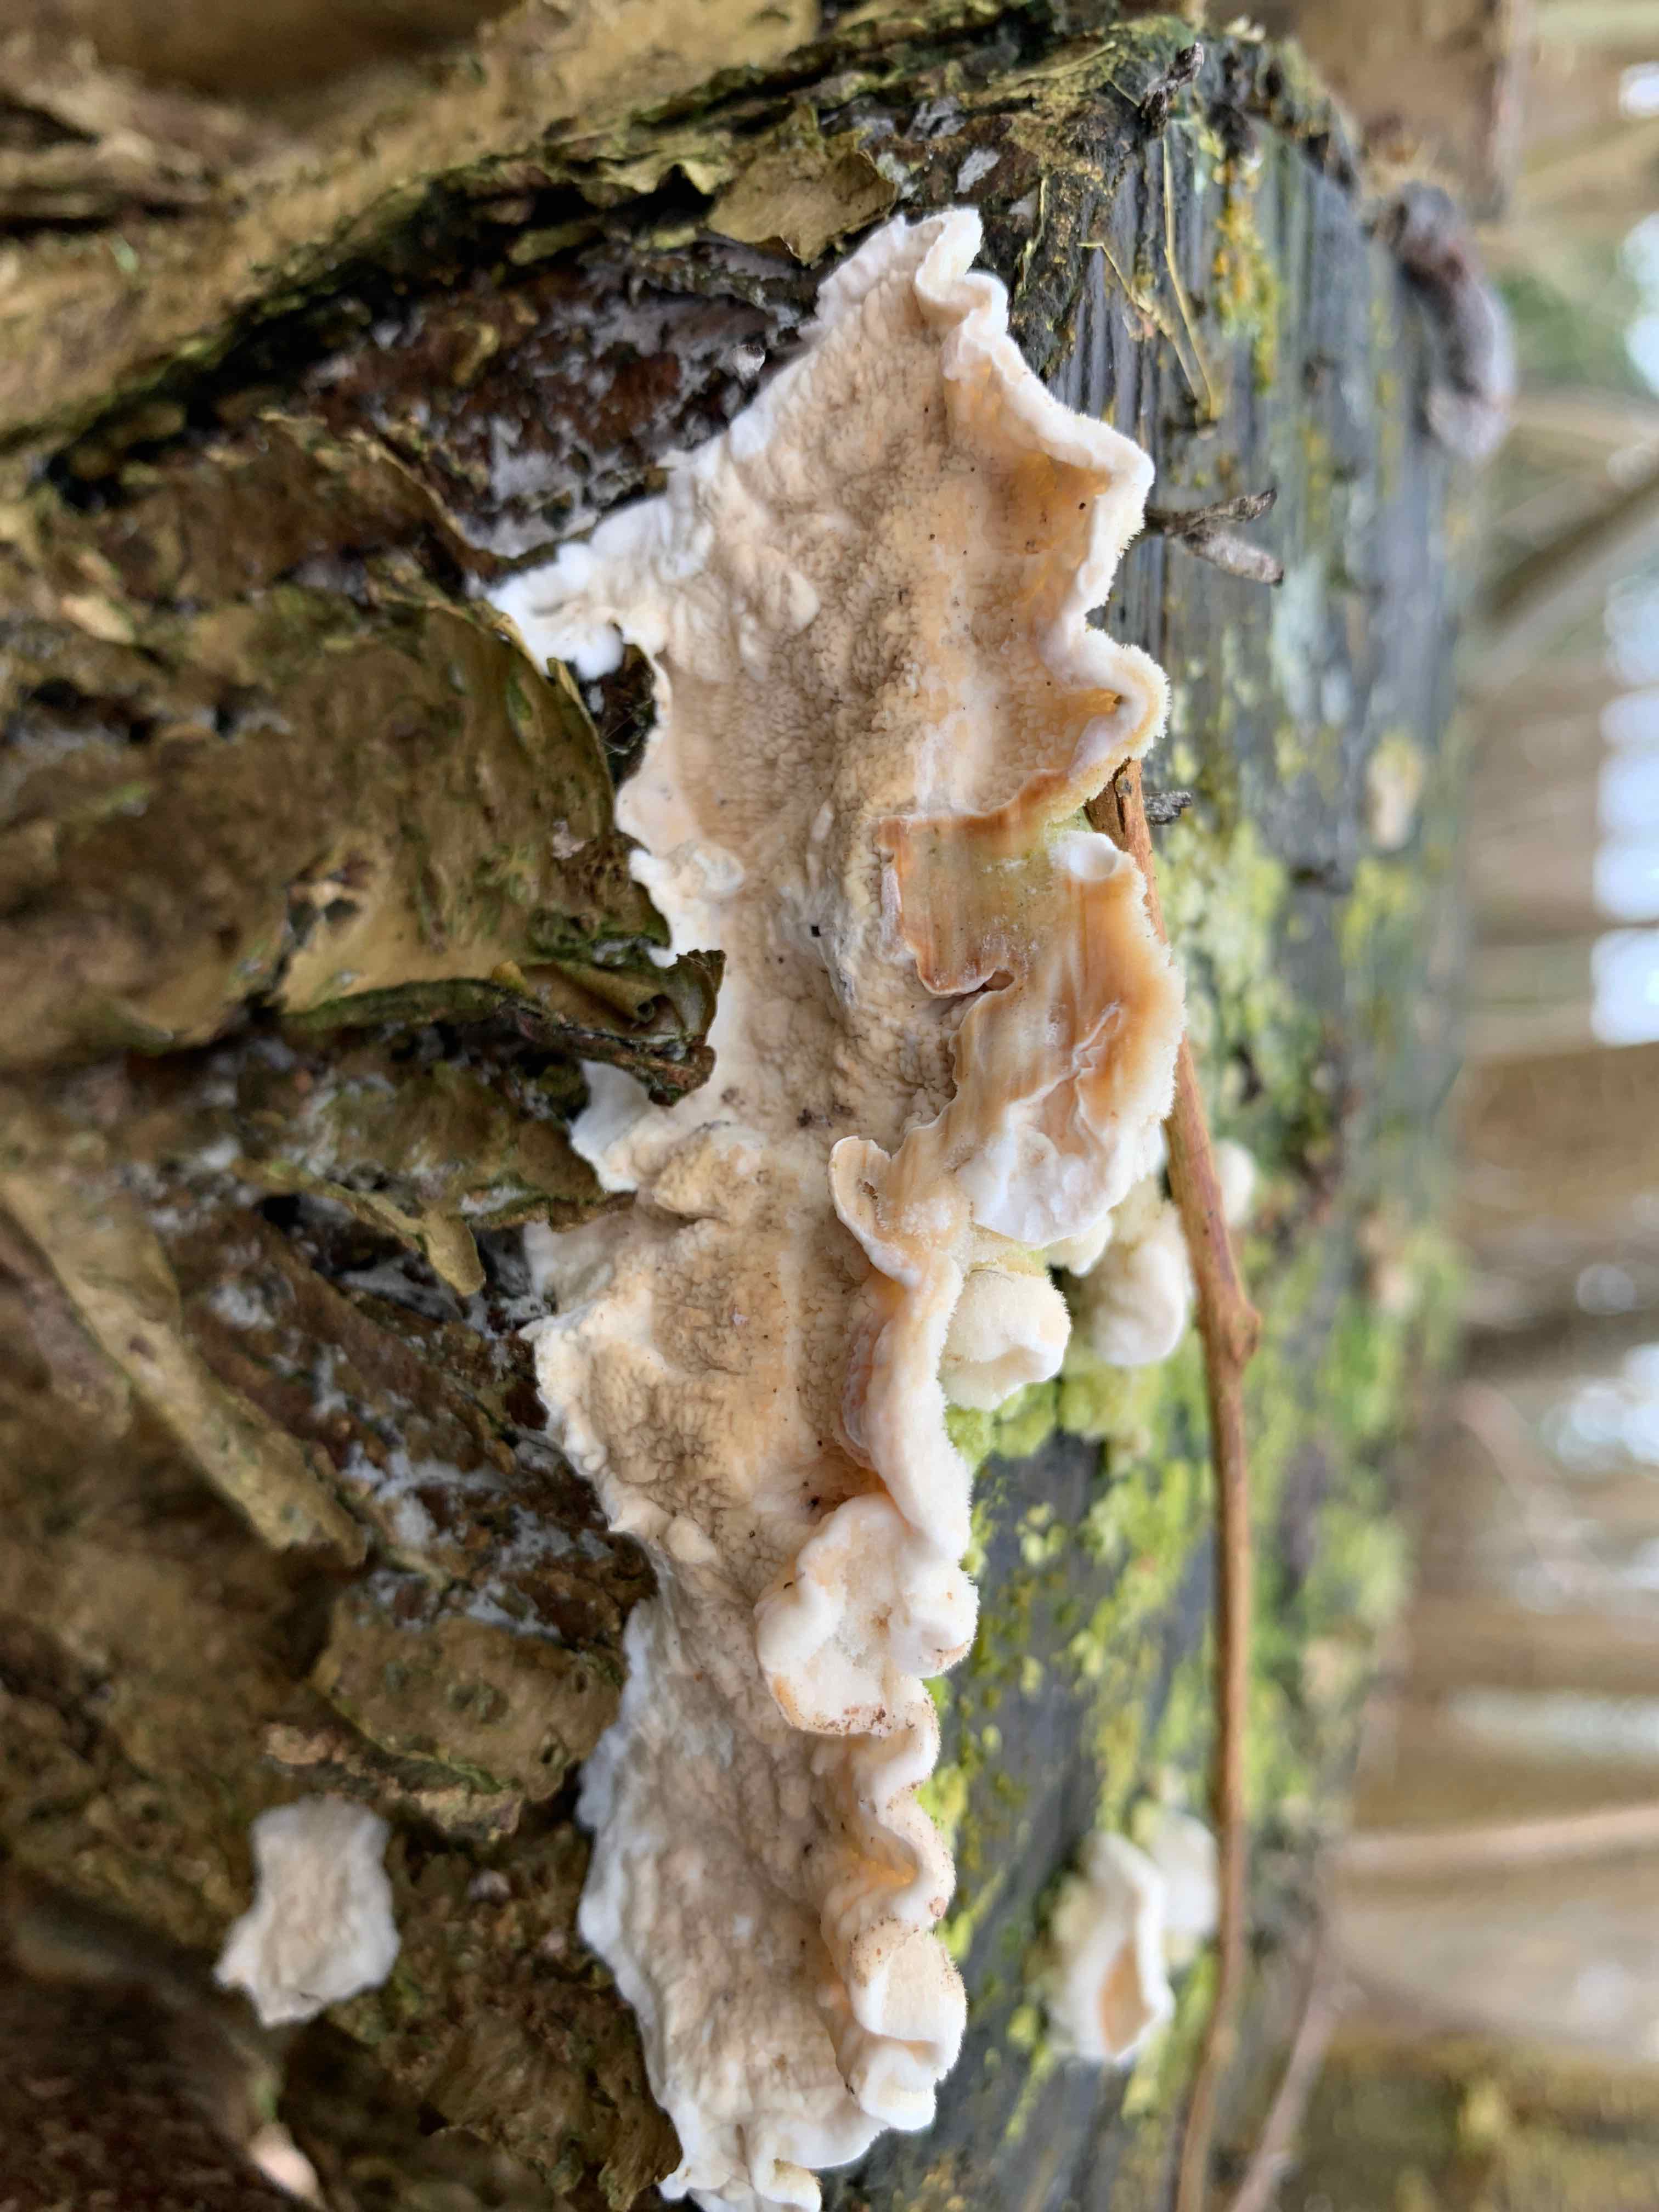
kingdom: Fungi
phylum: Basidiomycota
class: Agaricomycetes
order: Polyporales
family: Irpicaceae
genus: Byssomerulius
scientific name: Byssomerulius corium
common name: læder-åresvamp
